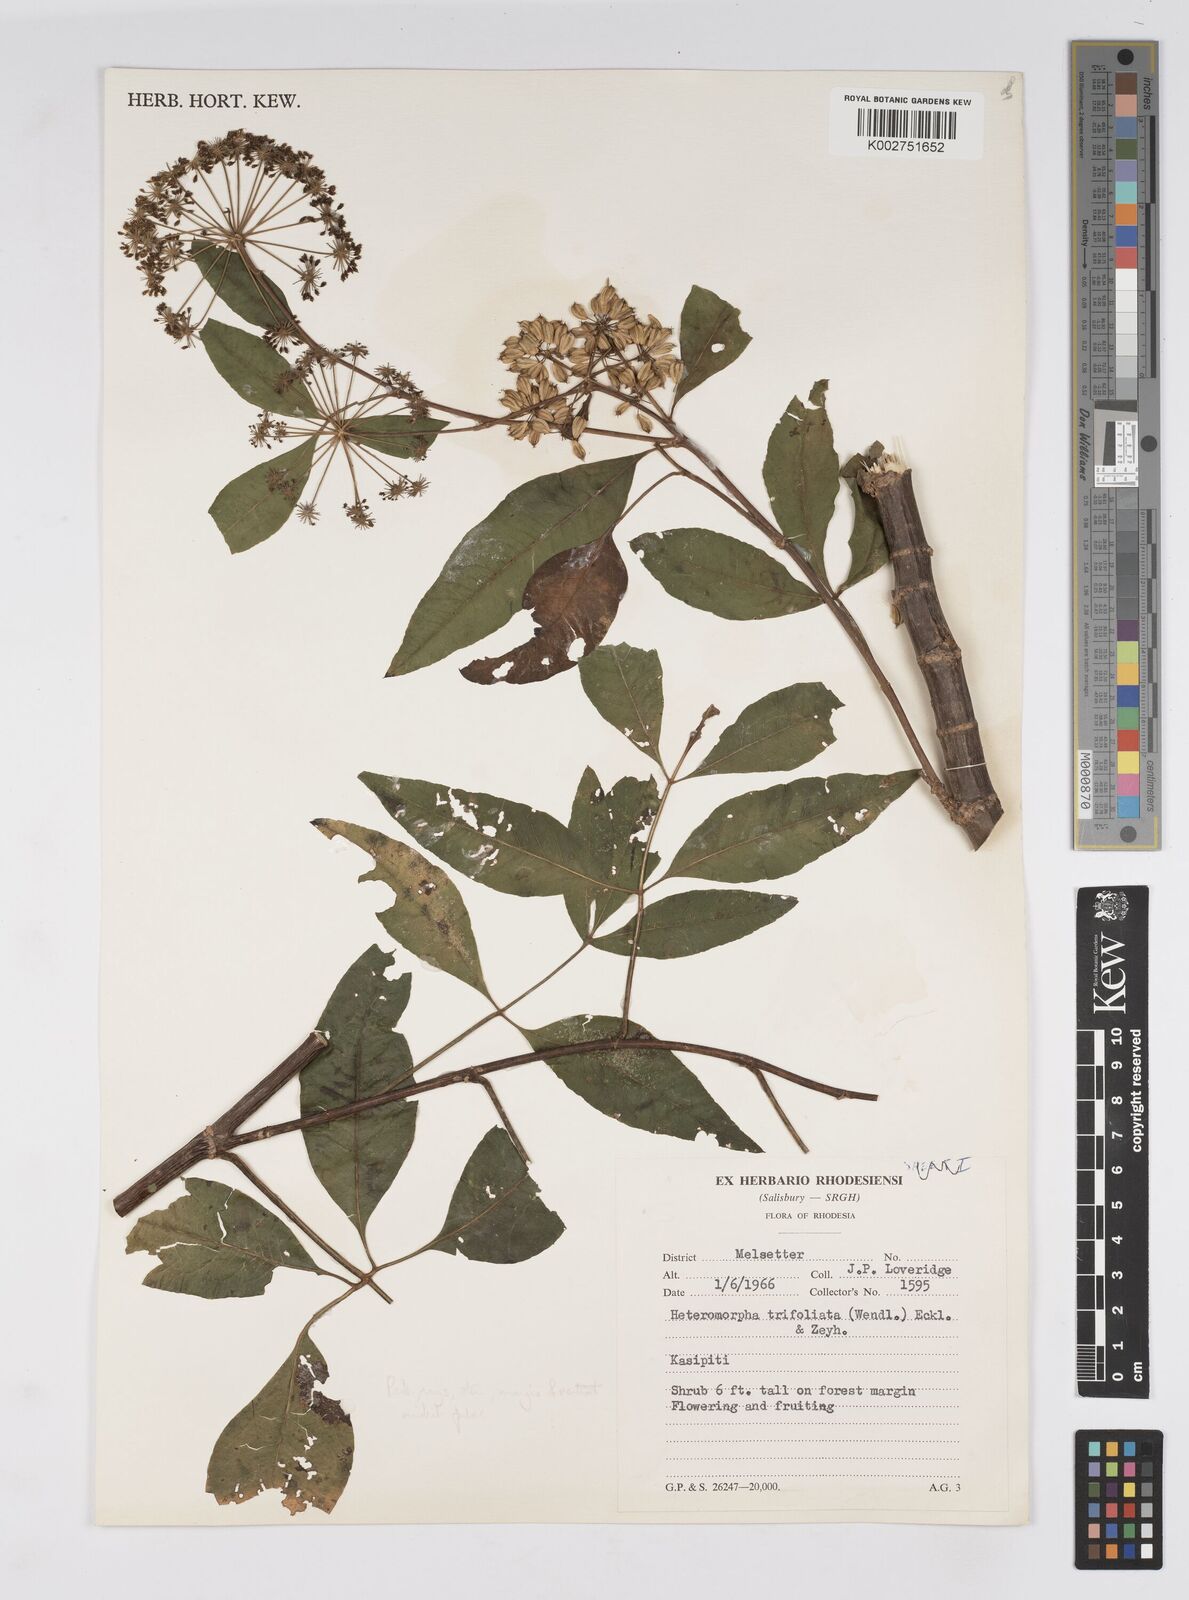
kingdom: Plantae
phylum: Tracheophyta
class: Magnoliopsida
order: Apiales
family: Apiaceae
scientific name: Apiaceae
